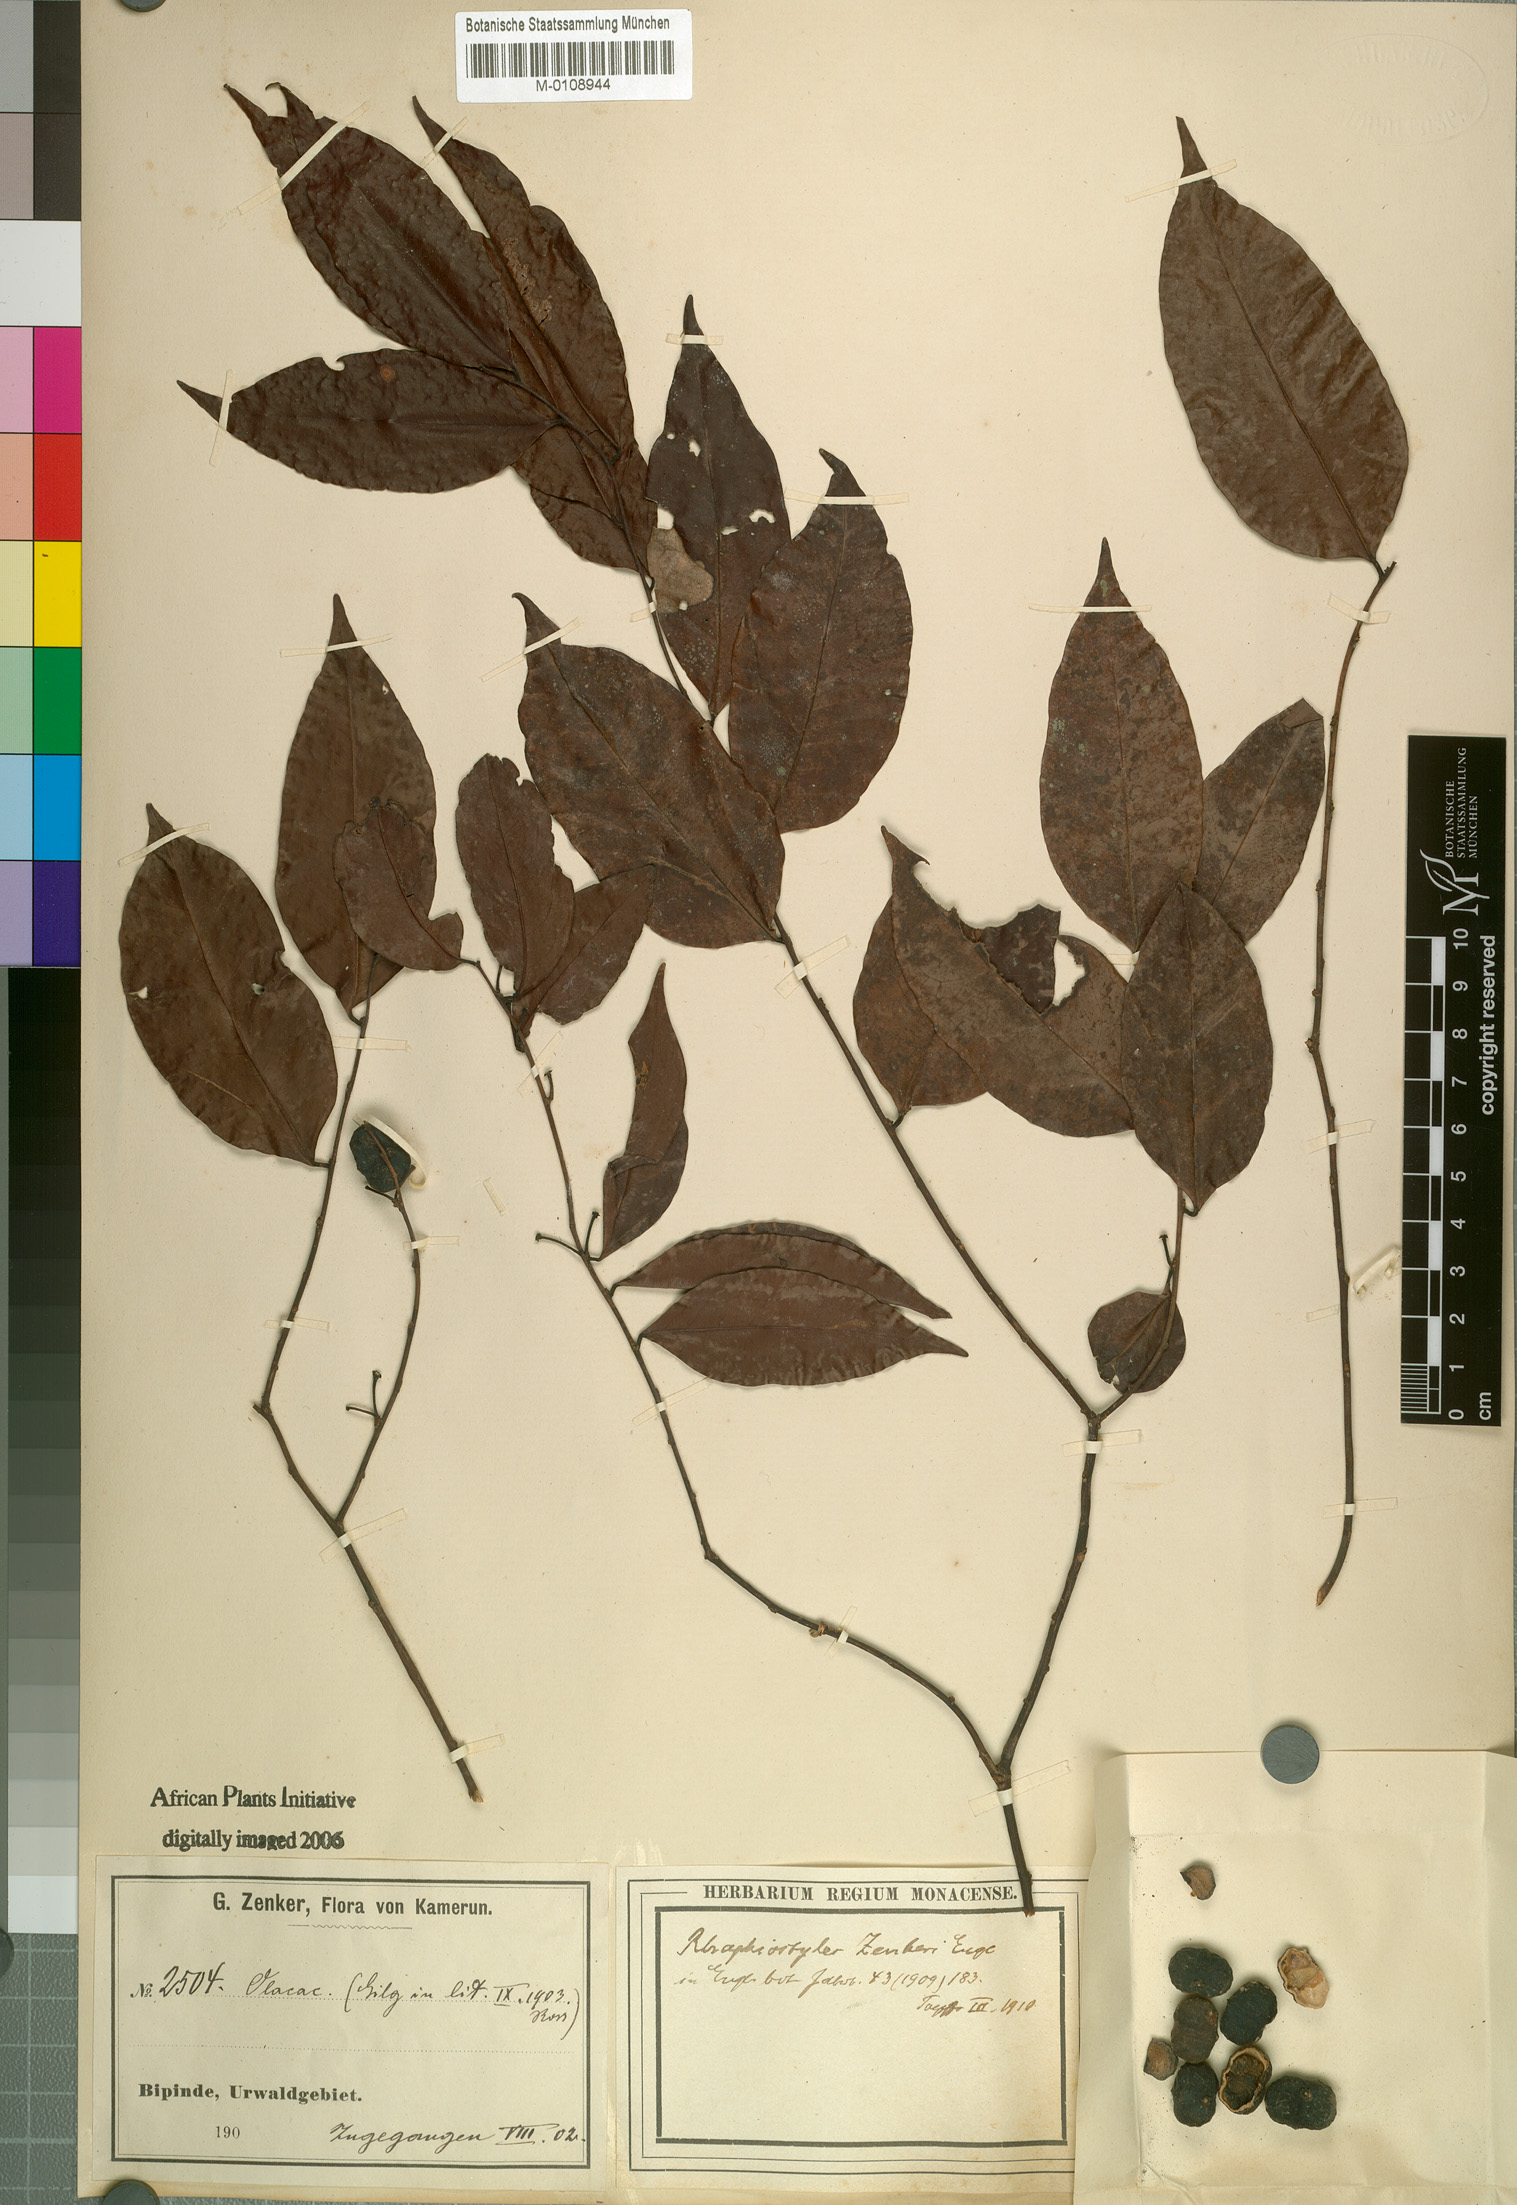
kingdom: Plantae
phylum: Tracheophyta
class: Magnoliopsida
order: Metteniusales
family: Metteniusaceae
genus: Rhaphiostylis
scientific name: Rhaphiostylis beninensis
